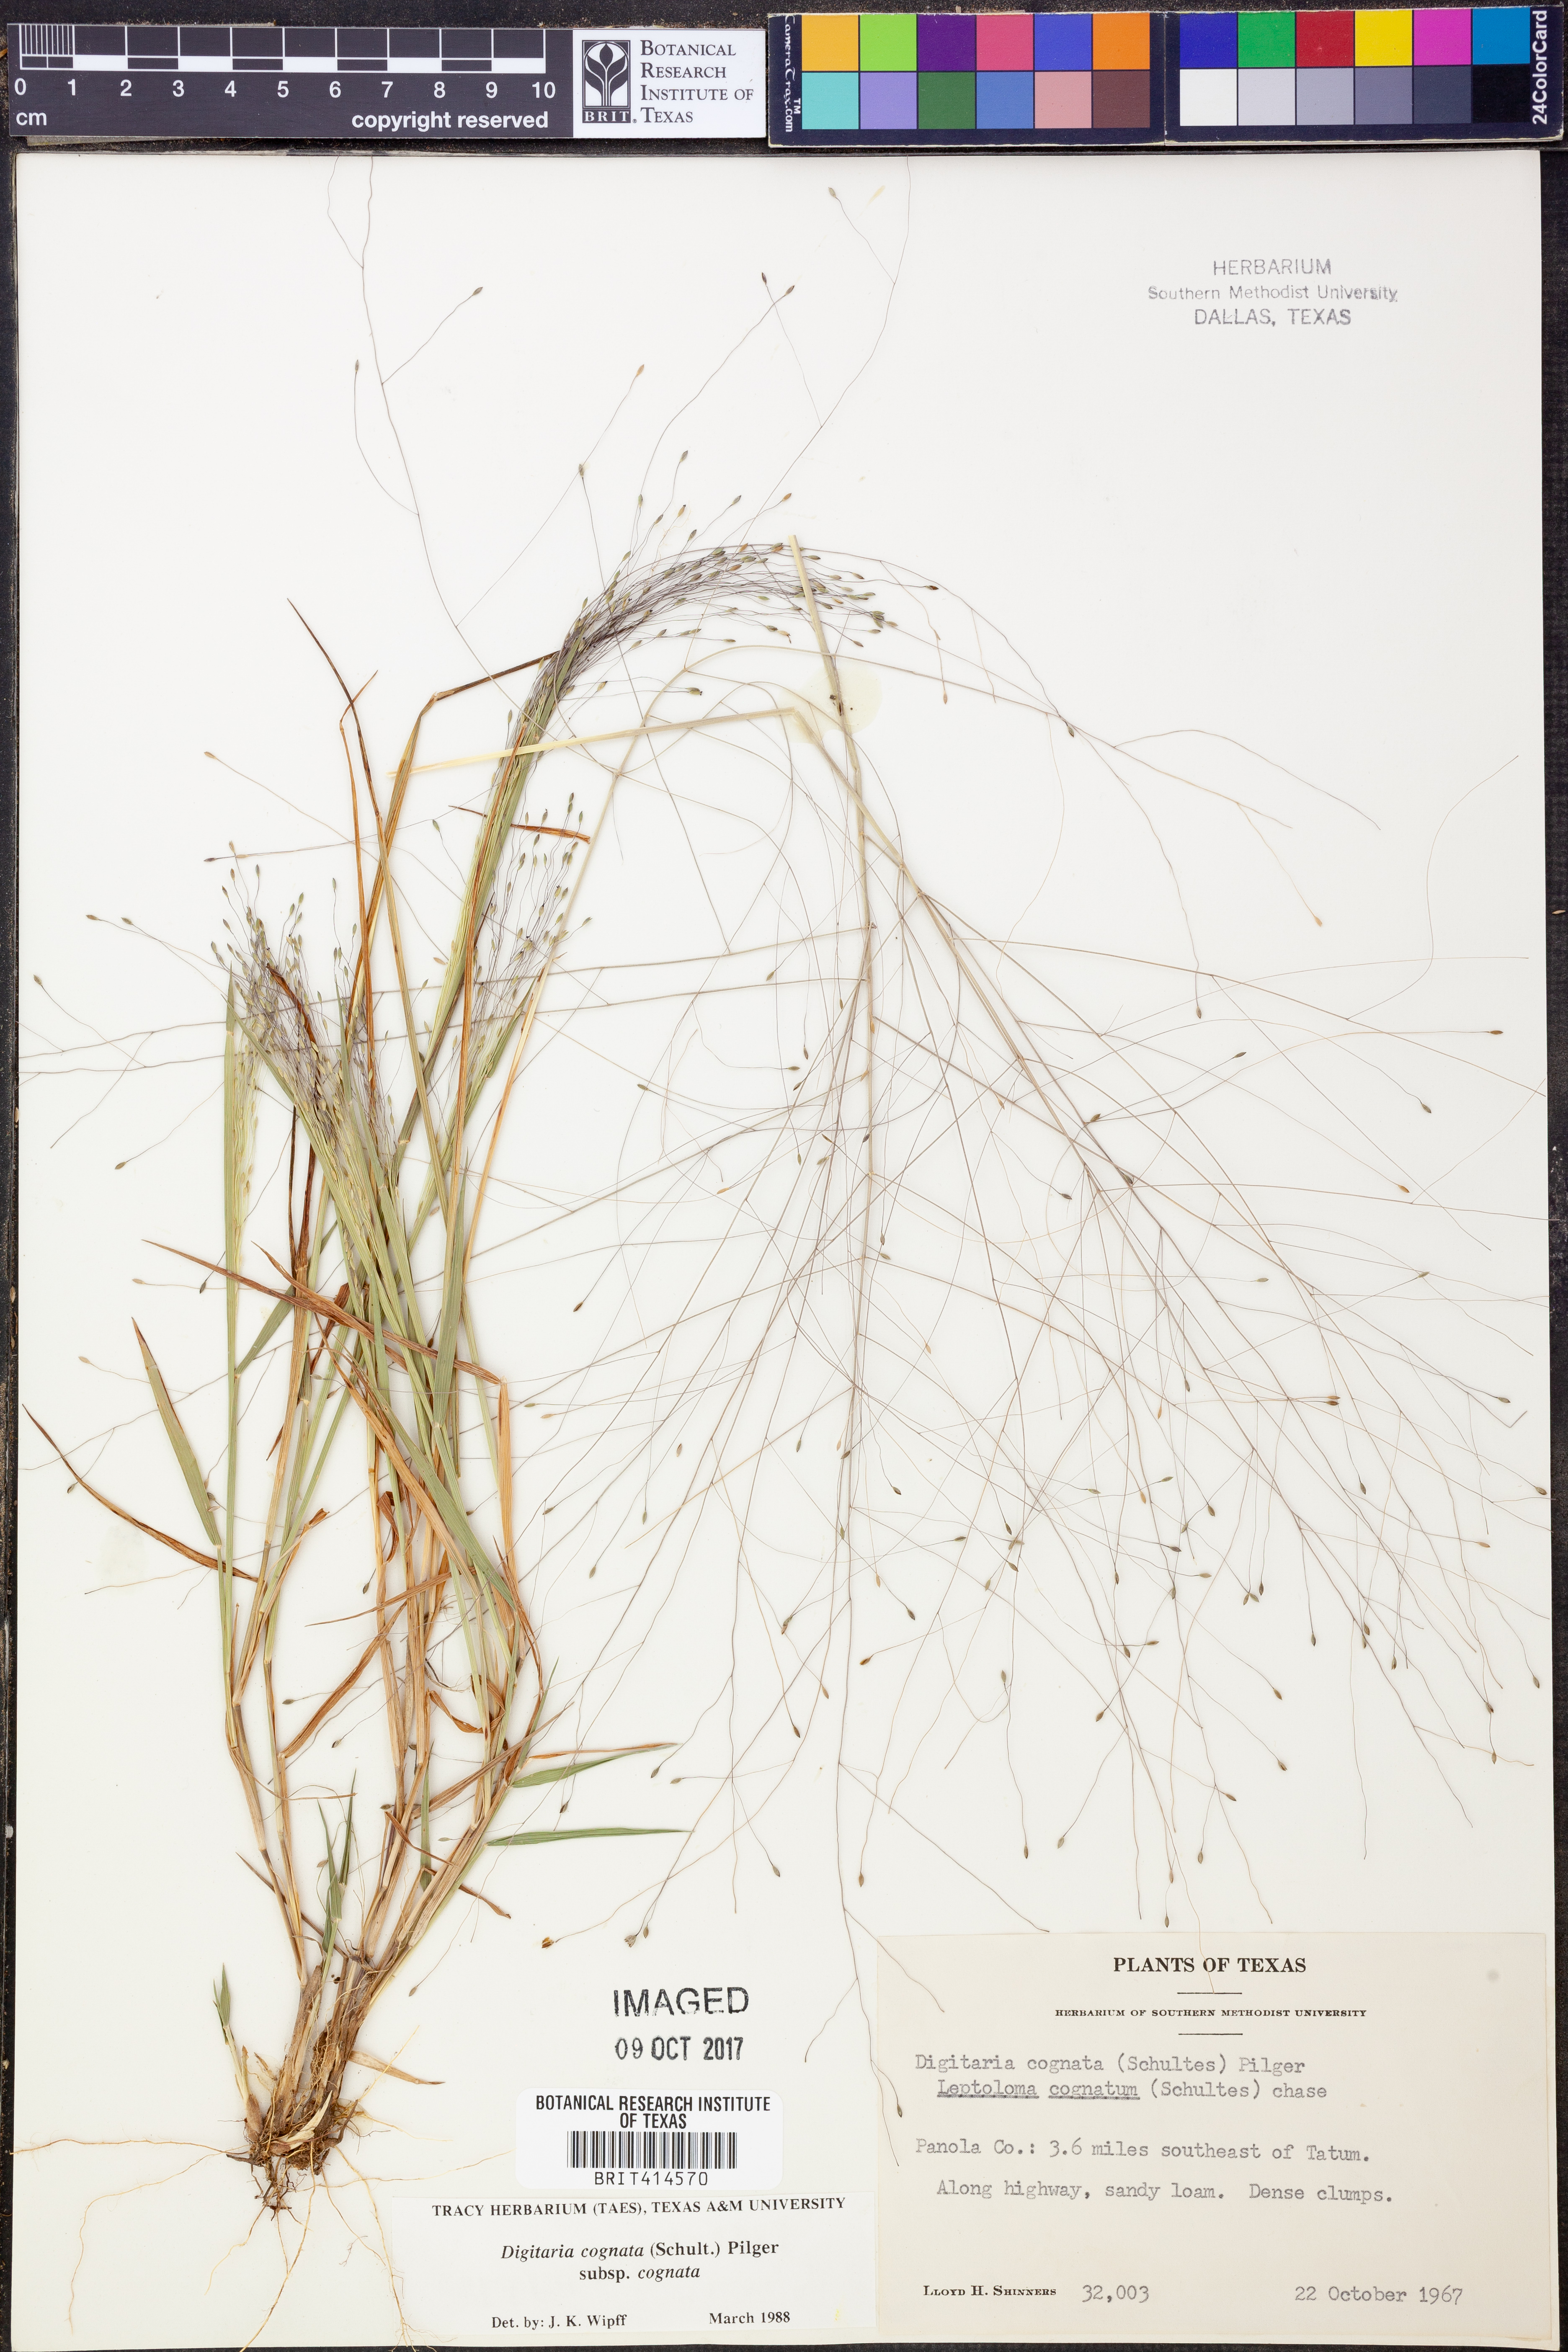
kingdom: Plantae
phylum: Tracheophyta
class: Liliopsida
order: Poales
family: Poaceae
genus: Digitaria
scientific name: Digitaria cognata
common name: Fall witchgrass
